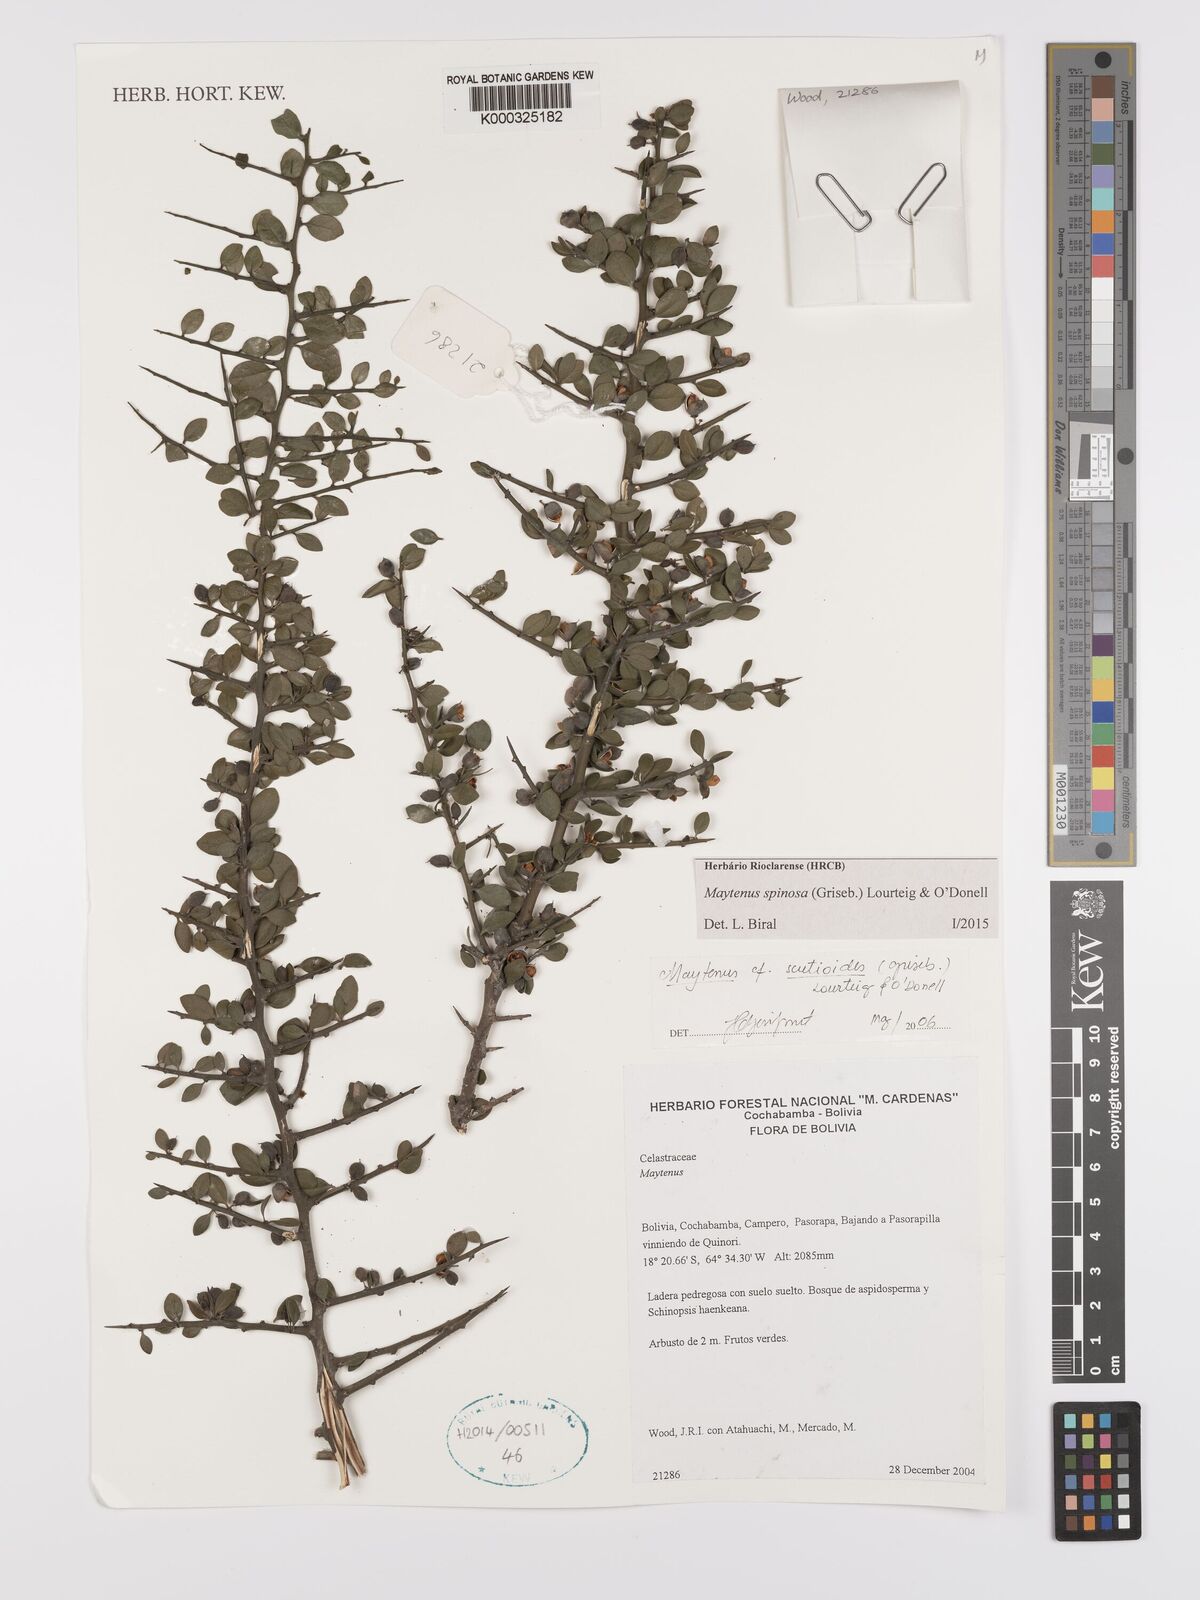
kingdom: Plantae
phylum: Tracheophyta
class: Magnoliopsida
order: Celastrales
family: Celastraceae
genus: Monteverdia
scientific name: Monteverdia spinosa
